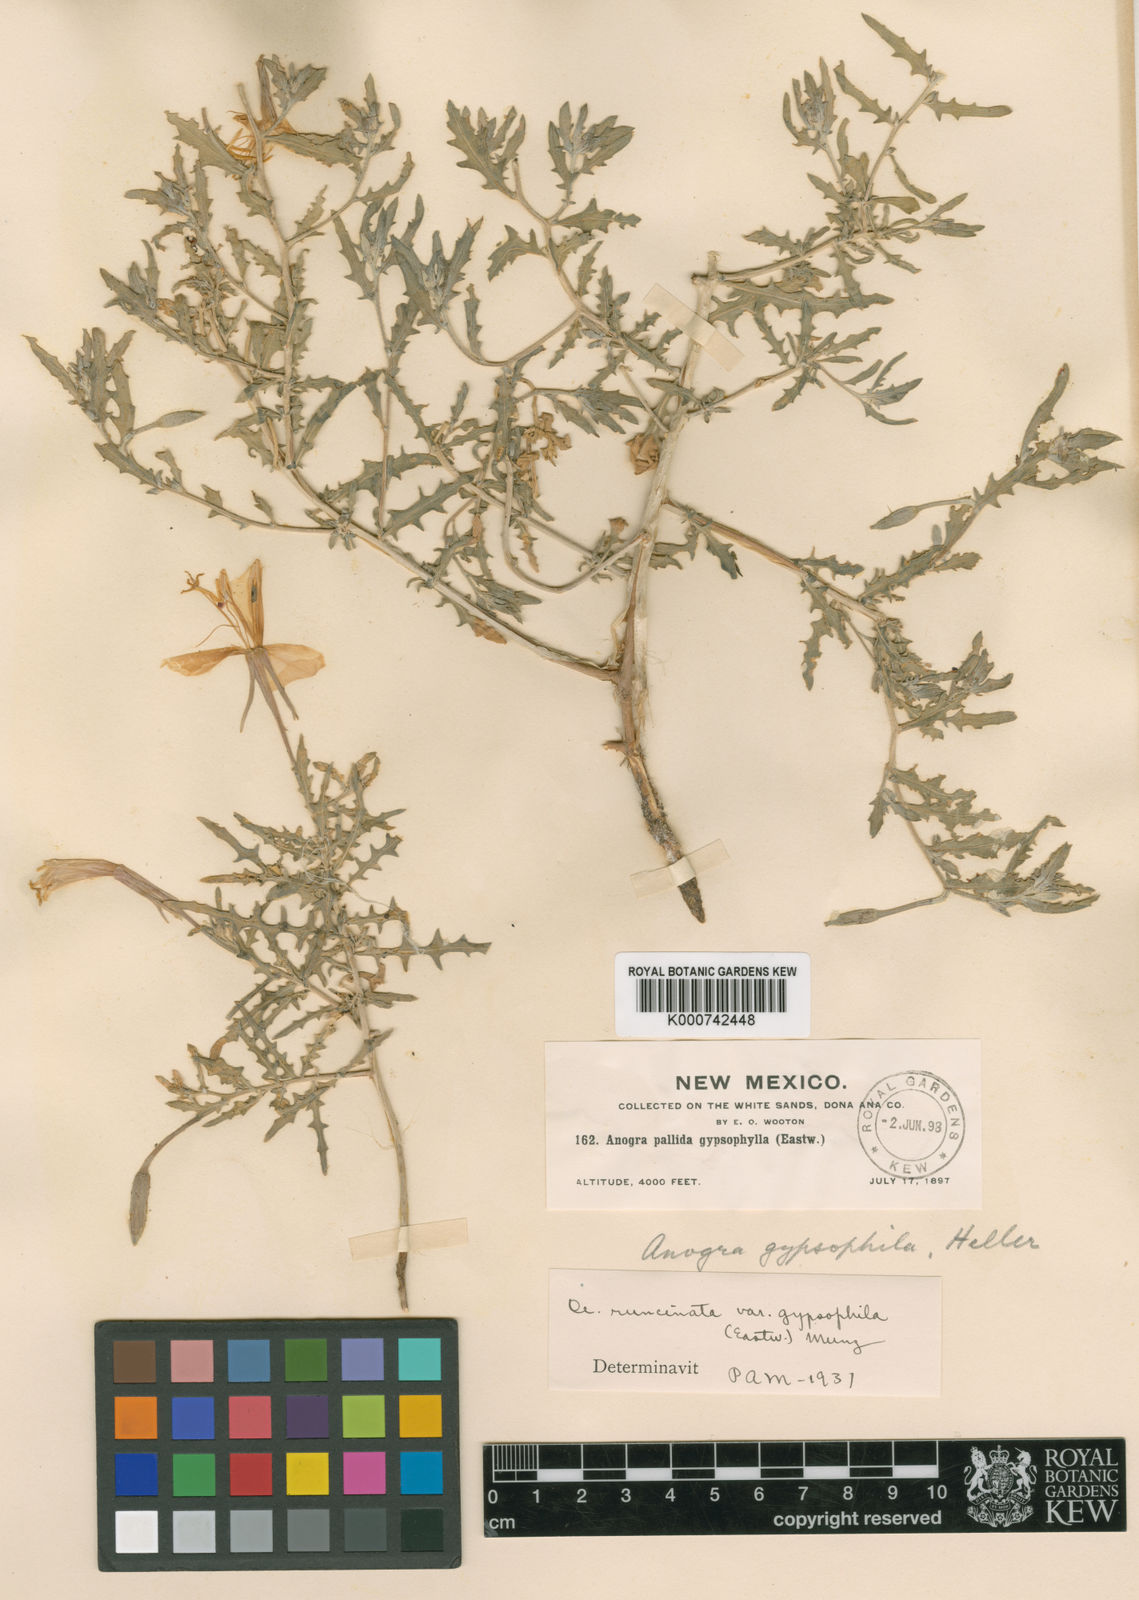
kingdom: Plantae
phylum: Tracheophyta
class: Magnoliopsida
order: Myrtales
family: Onagraceae
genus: Oenothera
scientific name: Oenothera pallida
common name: Pale evening-primrose
